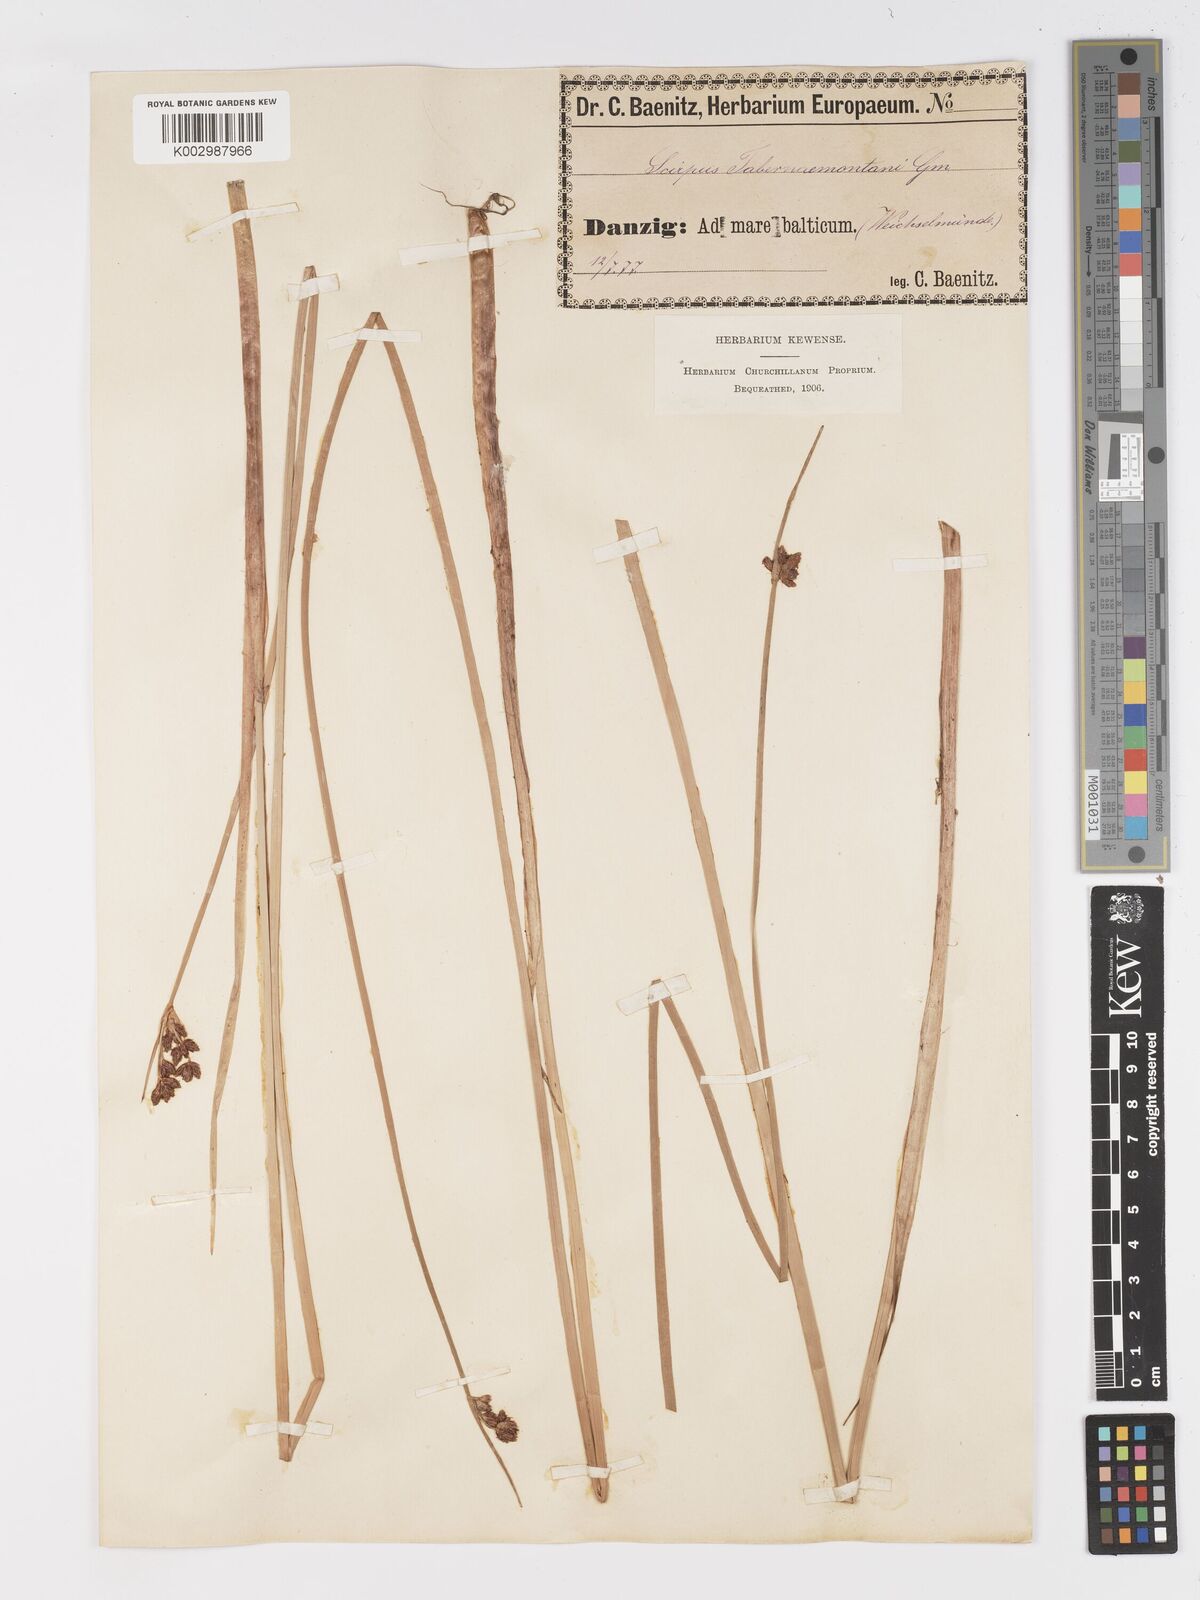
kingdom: Plantae
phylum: Tracheophyta
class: Liliopsida
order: Poales
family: Cyperaceae
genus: Schoenoplectus
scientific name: Schoenoplectus tabernaemontani
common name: Grey club-rush
